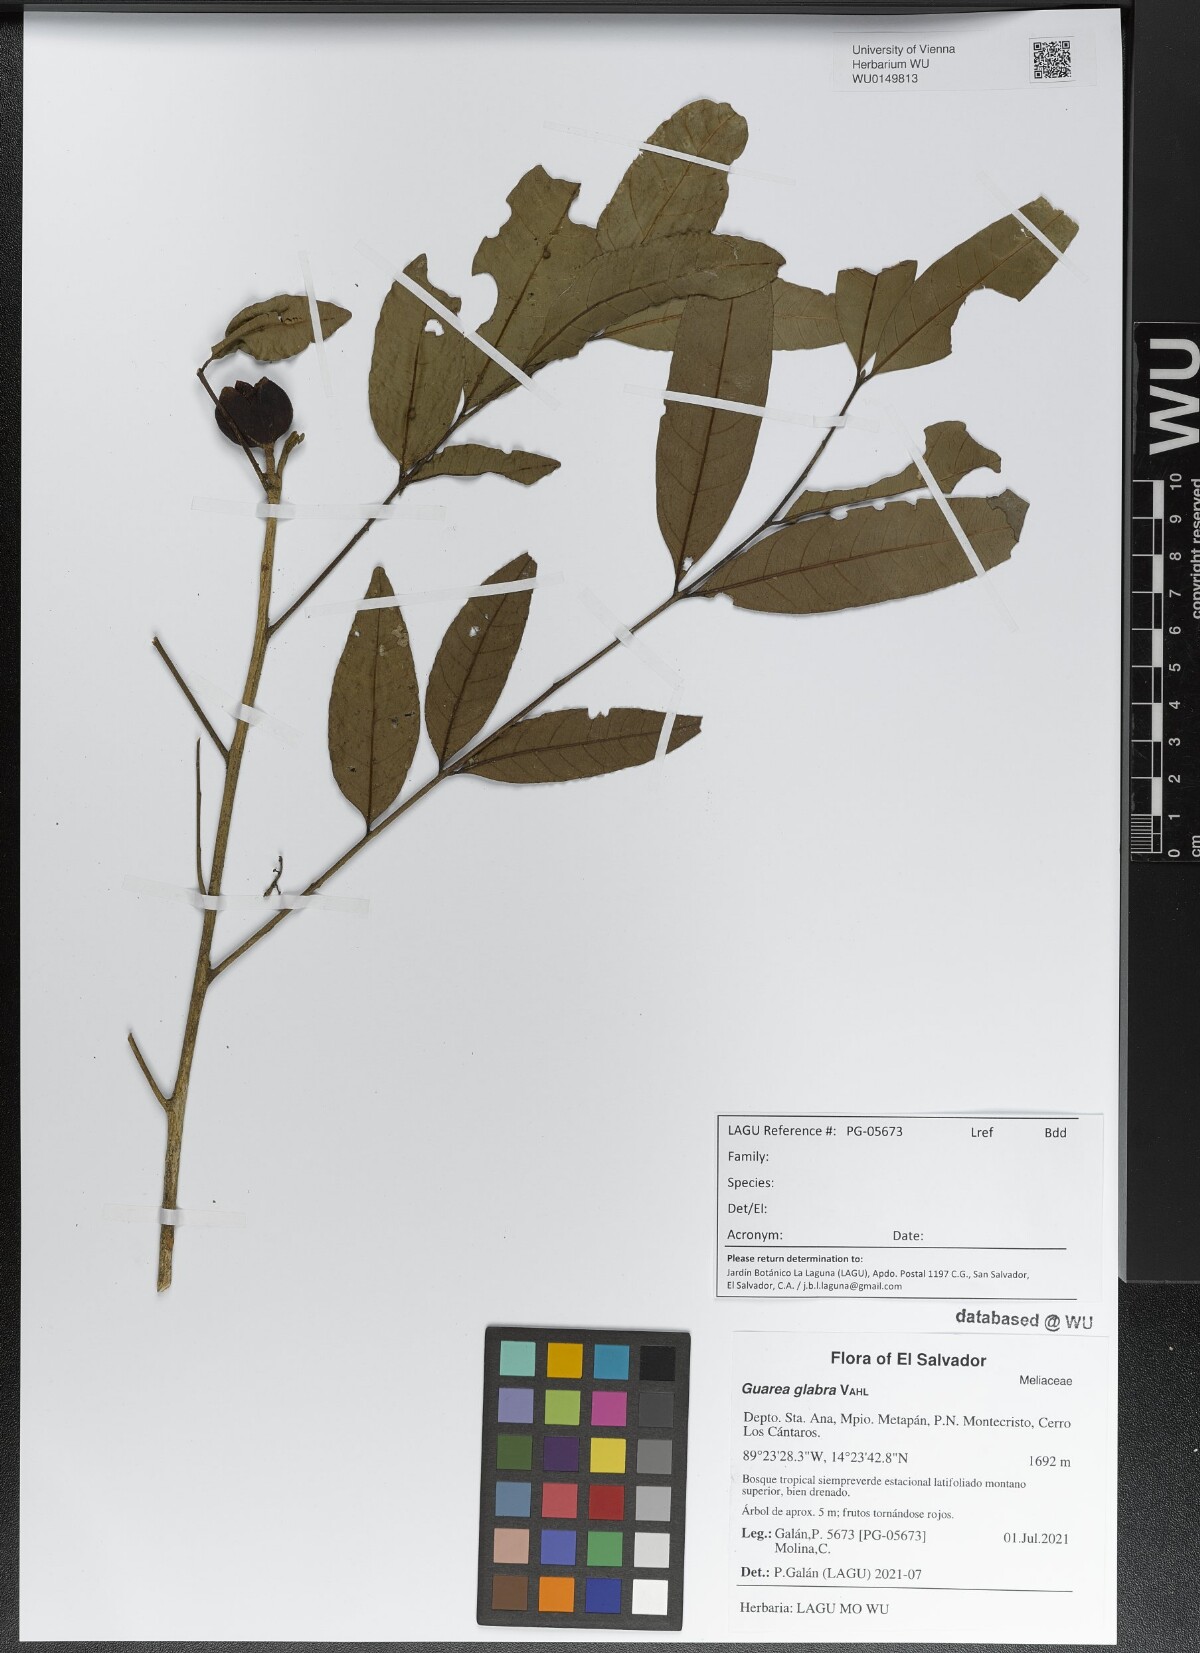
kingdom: Plantae
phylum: Tracheophyta
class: Magnoliopsida
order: Sapindales
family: Meliaceae
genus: Guarea
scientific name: Guarea glabra
